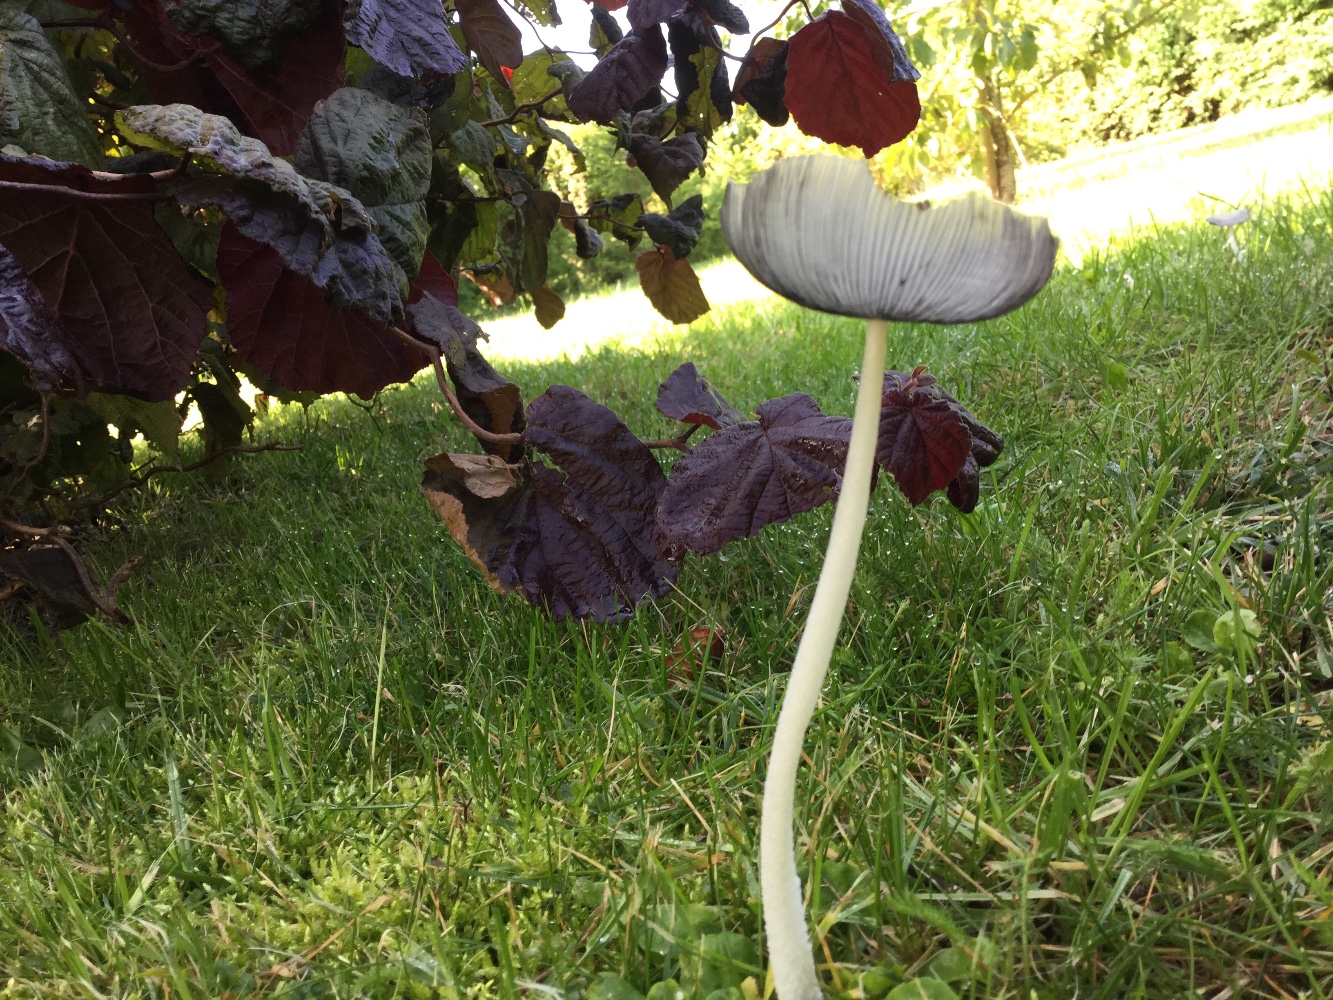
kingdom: Fungi
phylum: Basidiomycota
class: Agaricomycetes
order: Agaricales
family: Psathyrellaceae
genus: Coprinopsis
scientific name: Coprinopsis lagopus
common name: dunstokket blækhat
